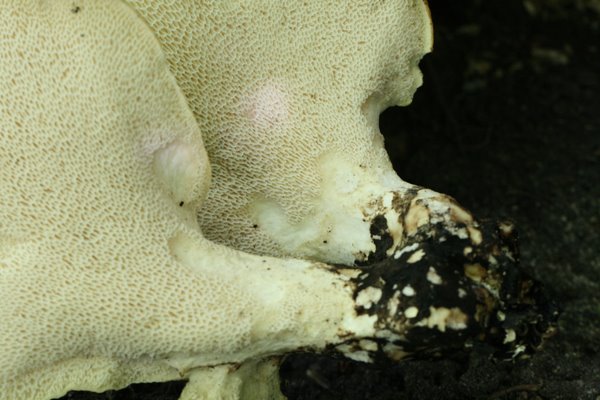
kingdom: Fungi
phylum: Basidiomycota
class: Agaricomycetes
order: Polyporales
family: Polyporaceae
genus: Cerioporus
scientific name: Cerioporus squamosus
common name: skællet stilkporesvamp
